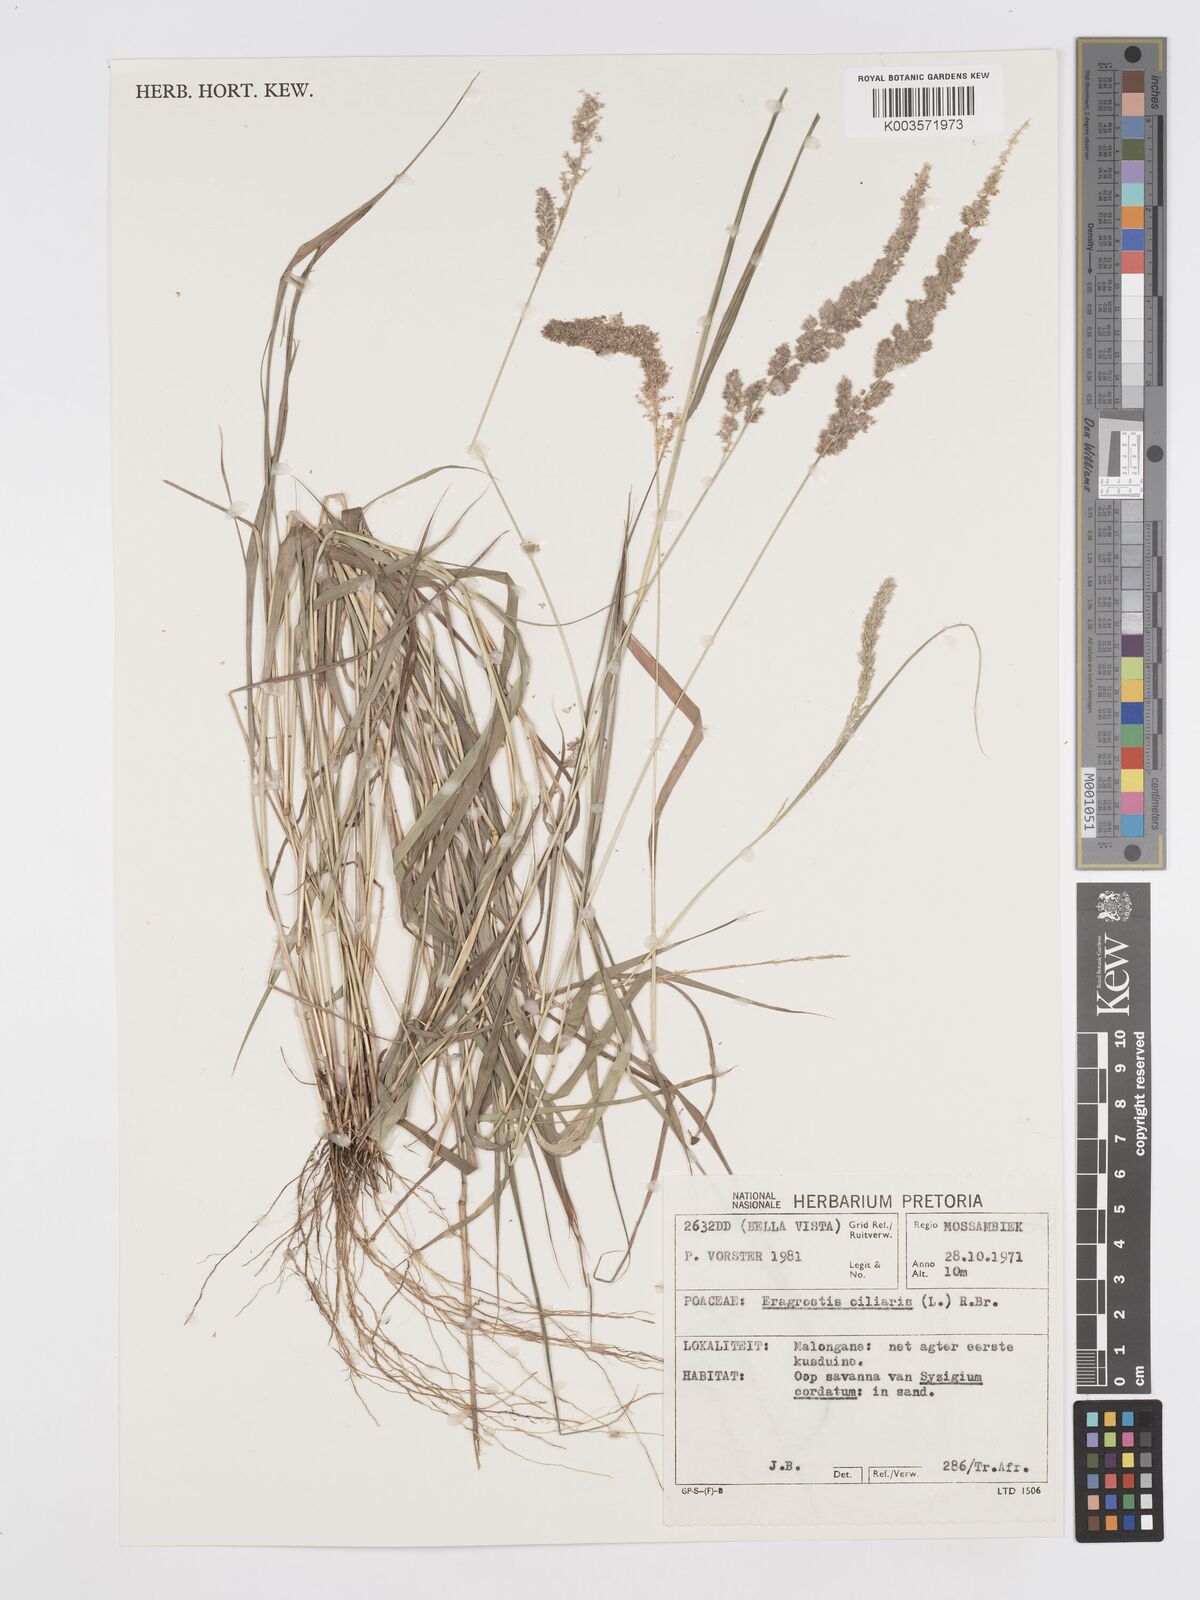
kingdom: Plantae
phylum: Tracheophyta
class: Liliopsida
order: Poales
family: Poaceae
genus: Eragrostis
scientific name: Eragrostis ciliaris
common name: Gophertail lovegrass
